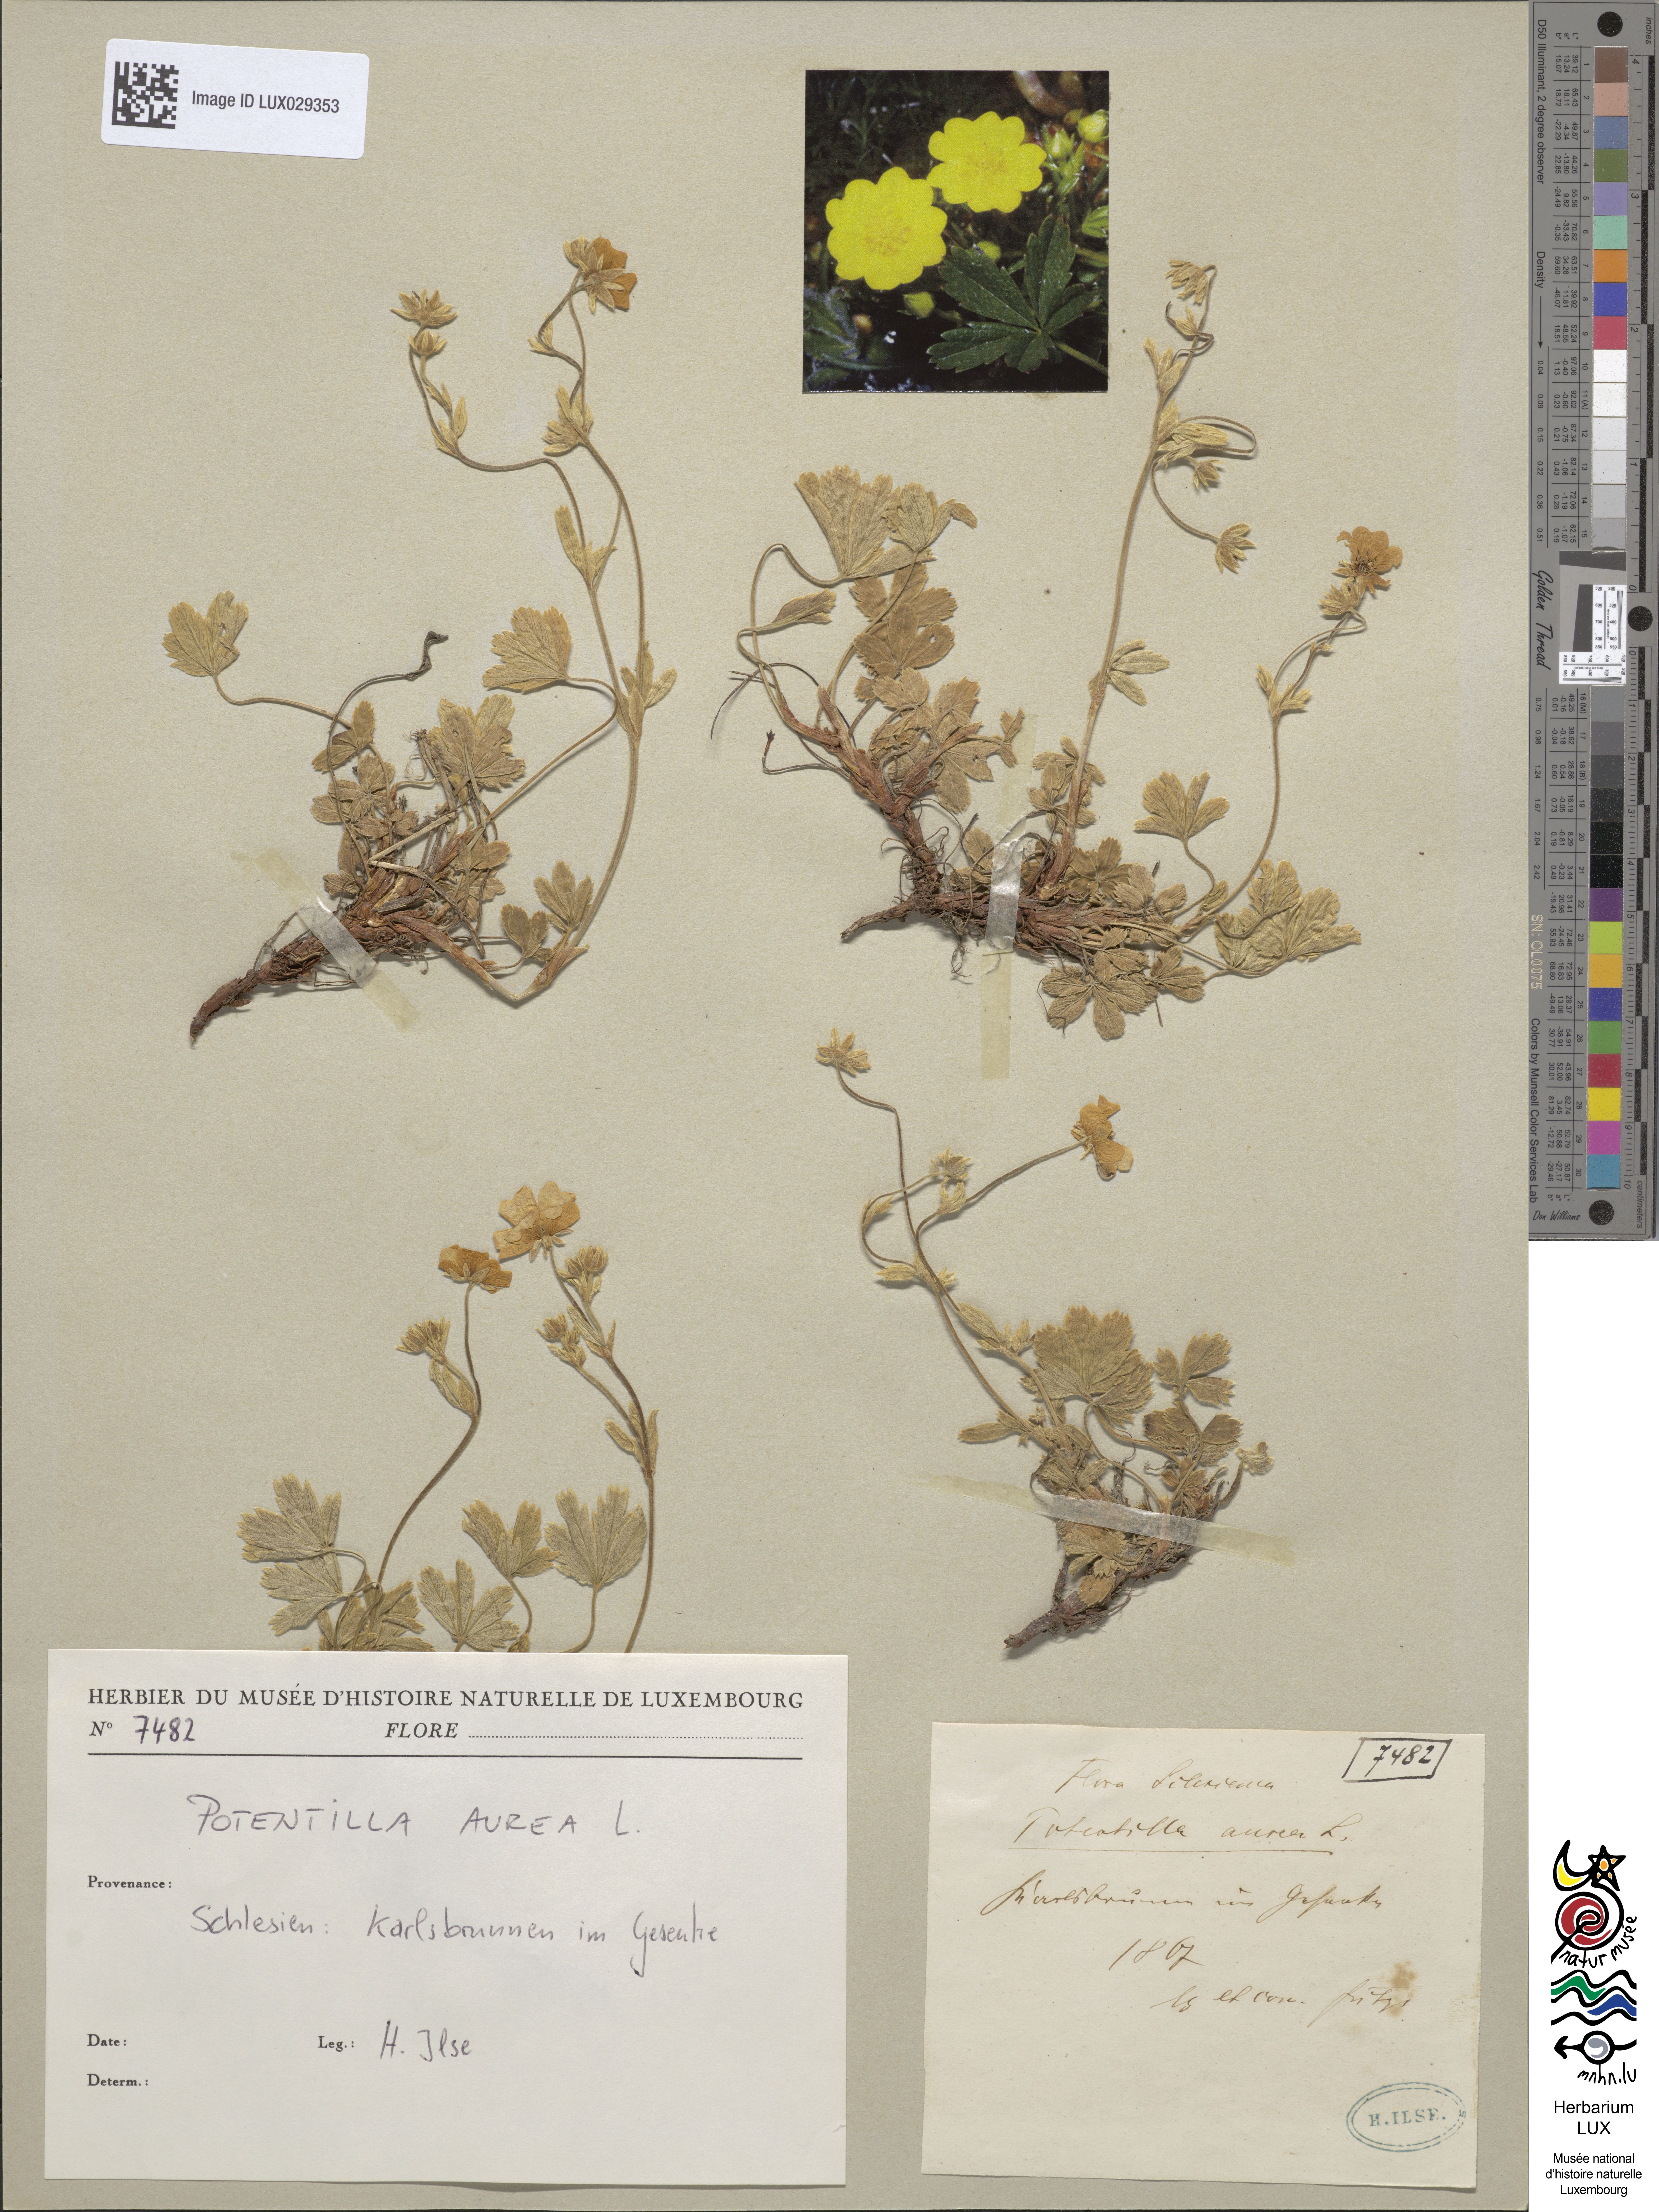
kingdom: Plantae
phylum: Tracheophyta
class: Magnoliopsida
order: Rosales
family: Rosaceae
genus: Potentilla
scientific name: Potentilla aurea
